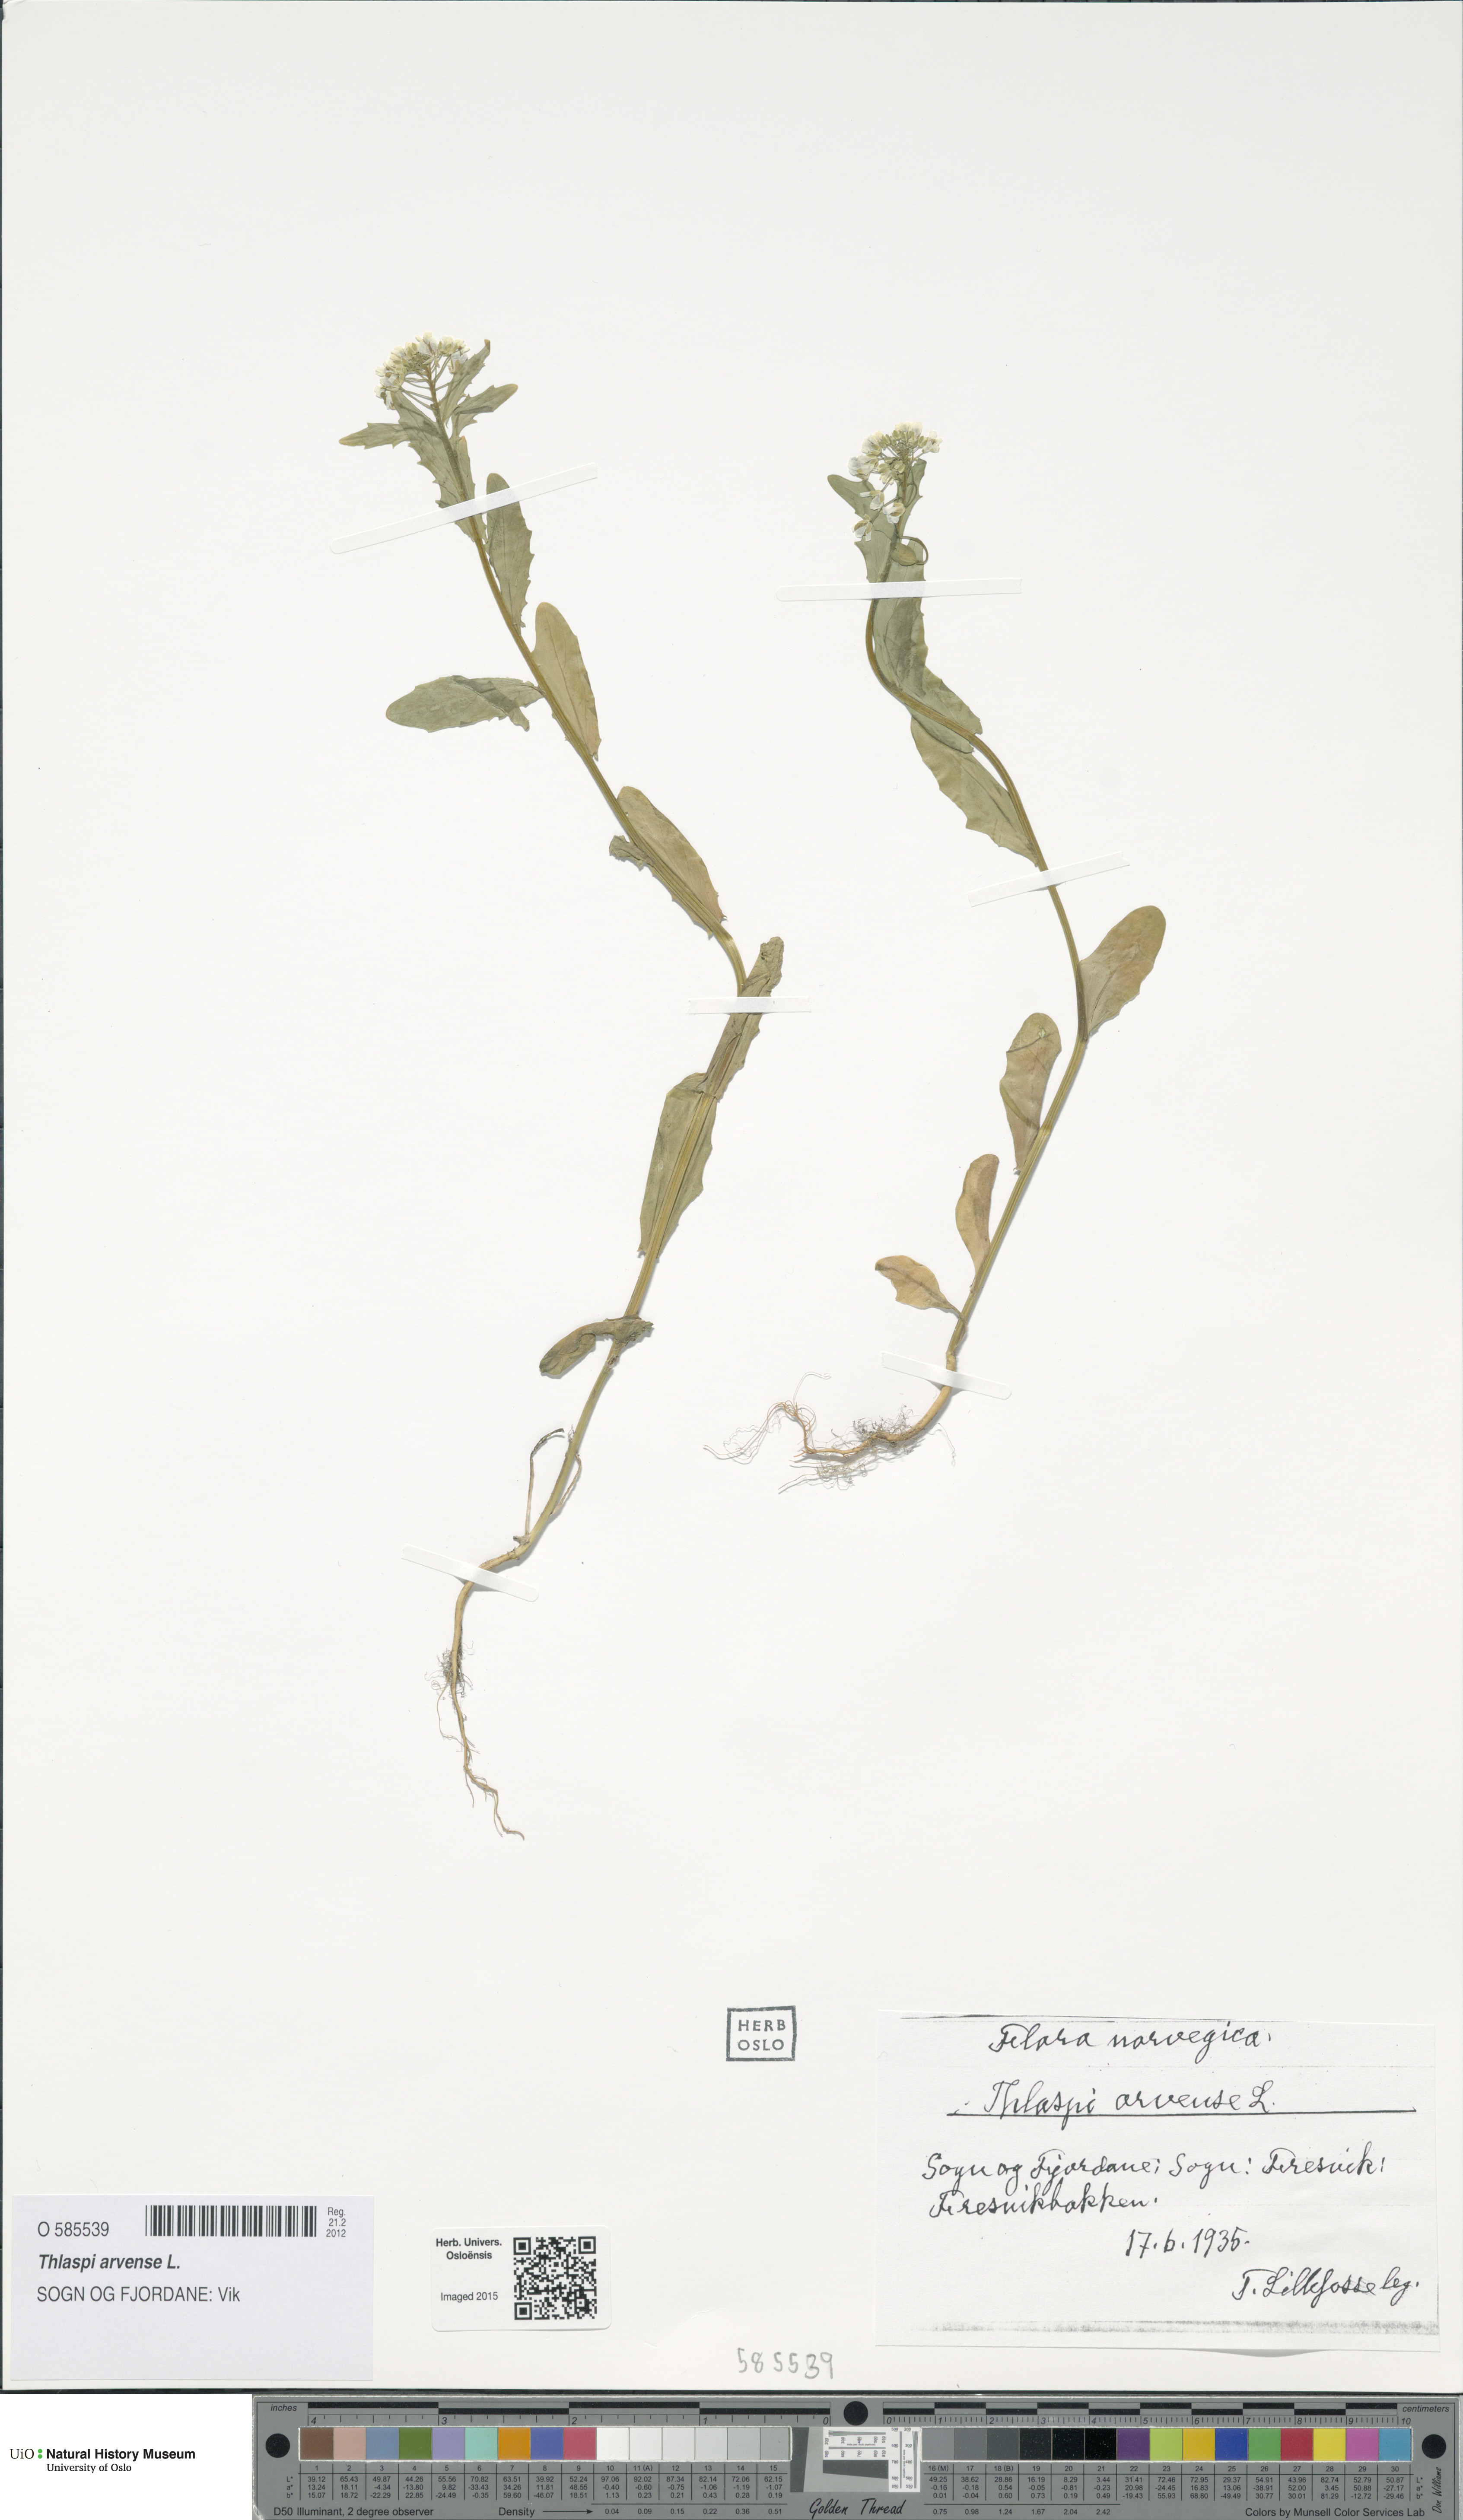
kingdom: Plantae
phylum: Tracheophyta
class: Magnoliopsida
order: Brassicales
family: Brassicaceae
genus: Thlaspi
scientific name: Thlaspi arvense
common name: Field pennycress
